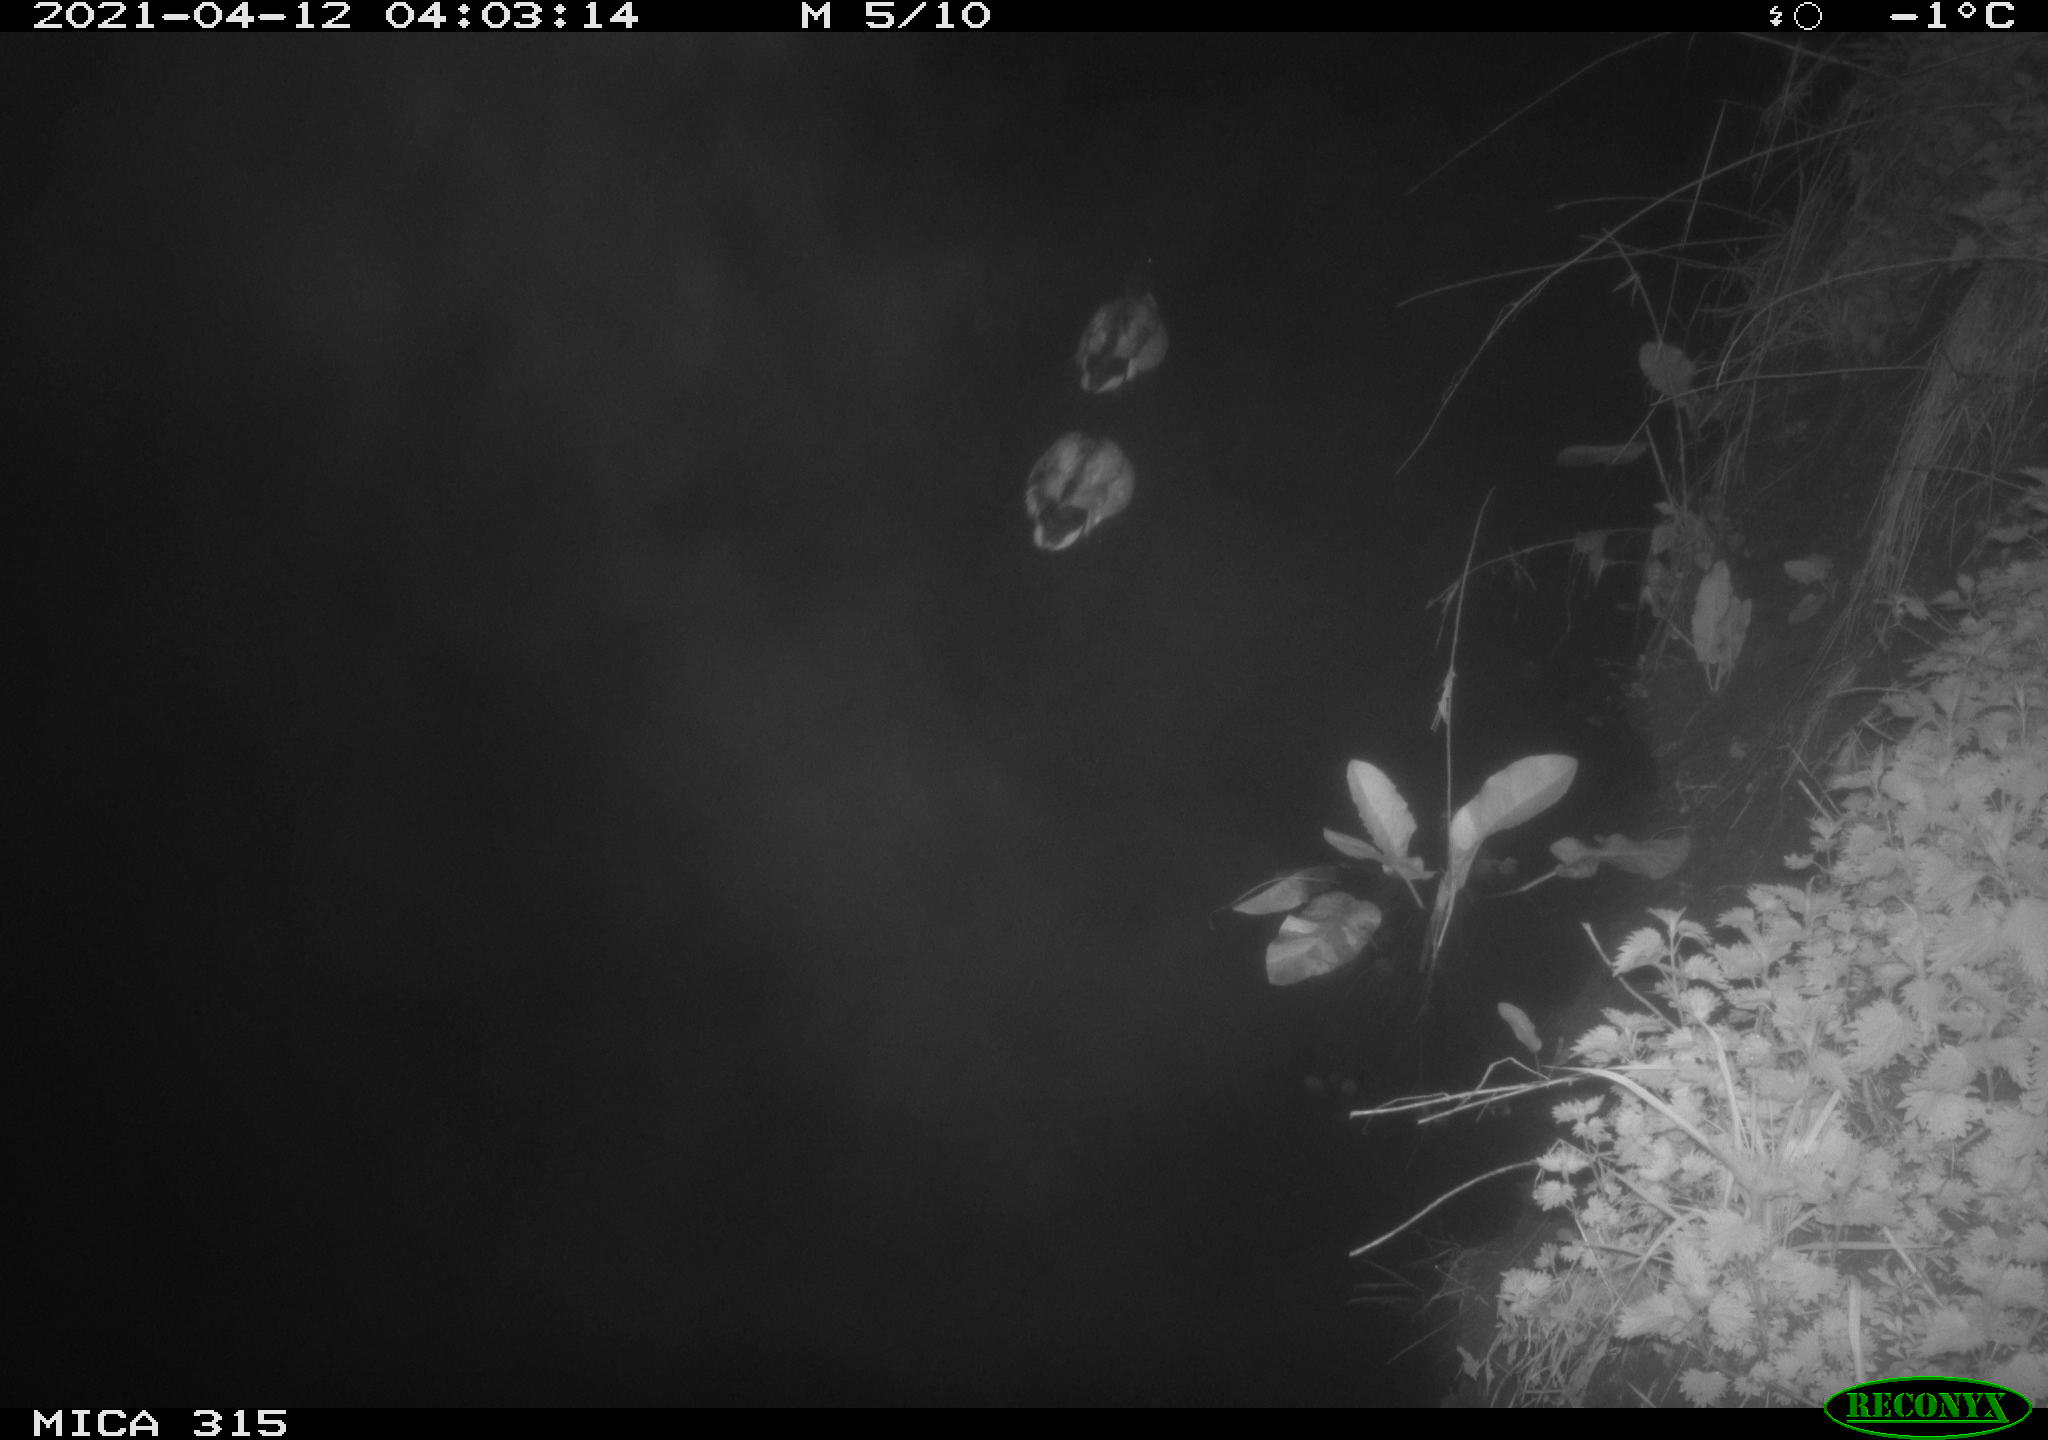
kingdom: Animalia
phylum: Chordata
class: Aves
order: Anseriformes
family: Anatidae
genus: Anas
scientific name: Anas platyrhynchos
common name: Mallard
